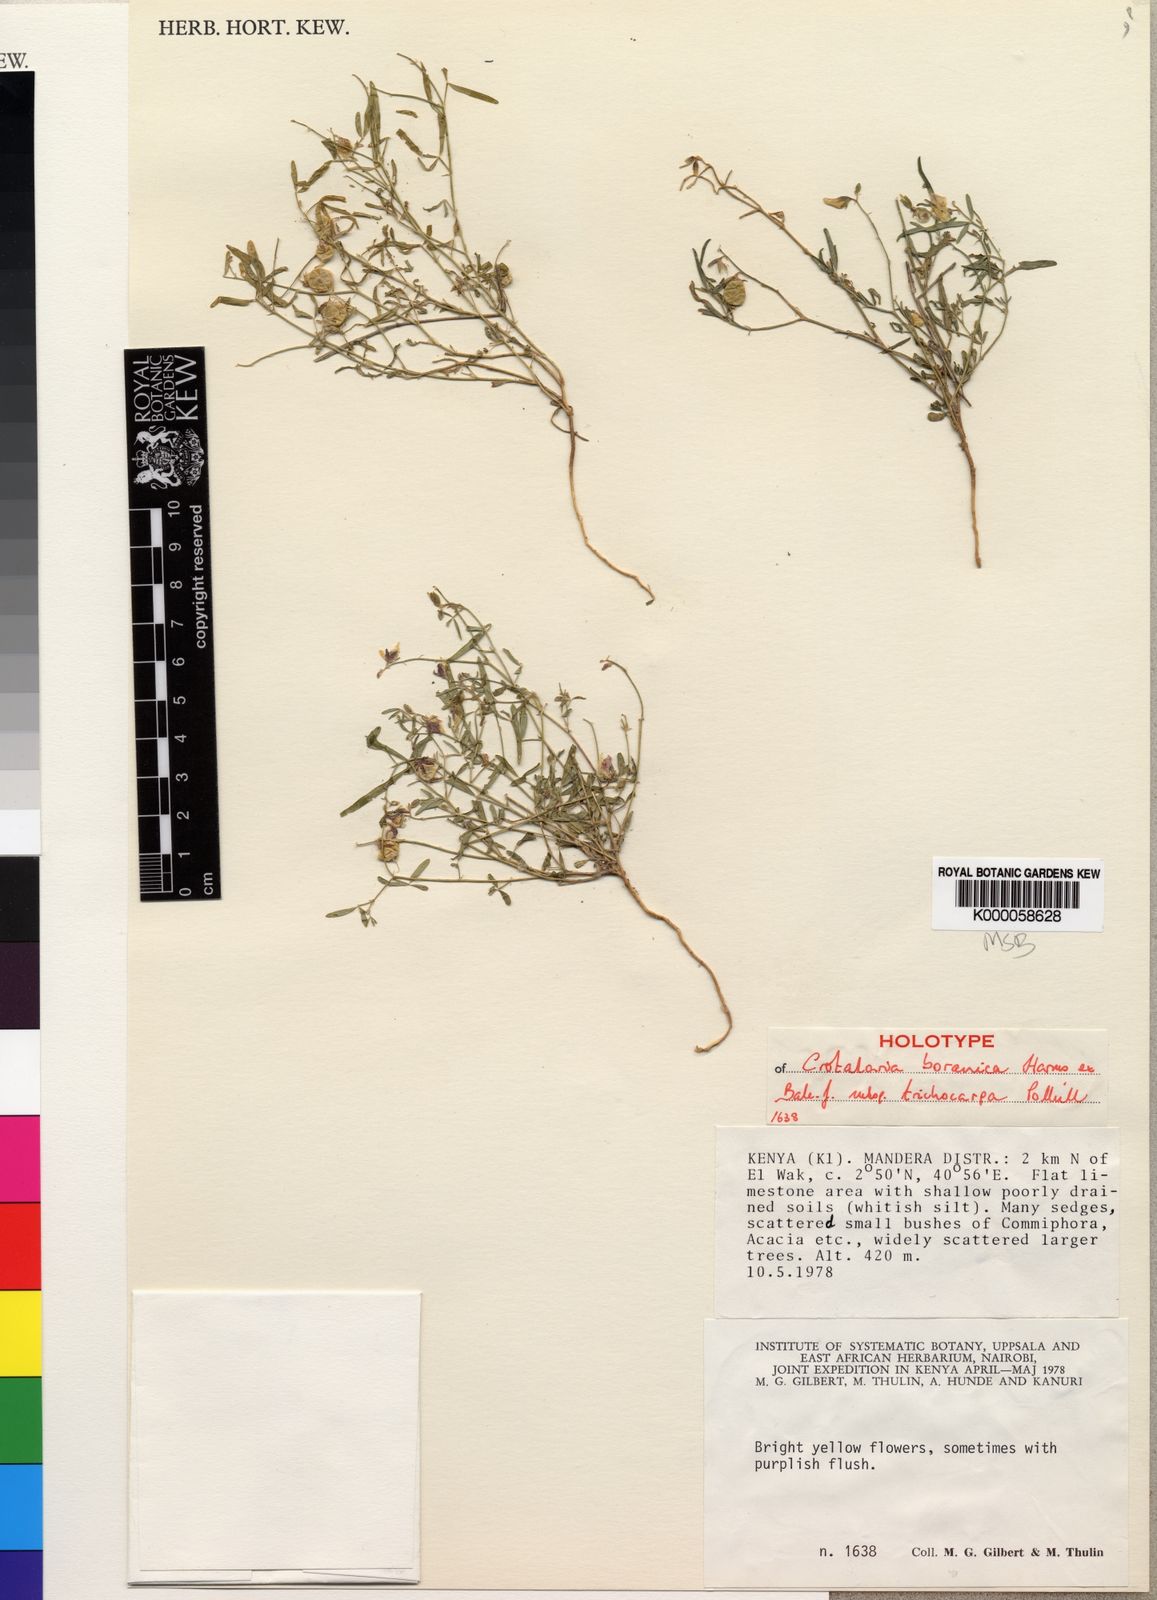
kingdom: Plantae
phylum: Tracheophyta
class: Magnoliopsida
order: Fabales
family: Fabaceae
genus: Crotalaria
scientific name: Crotalaria boranica
